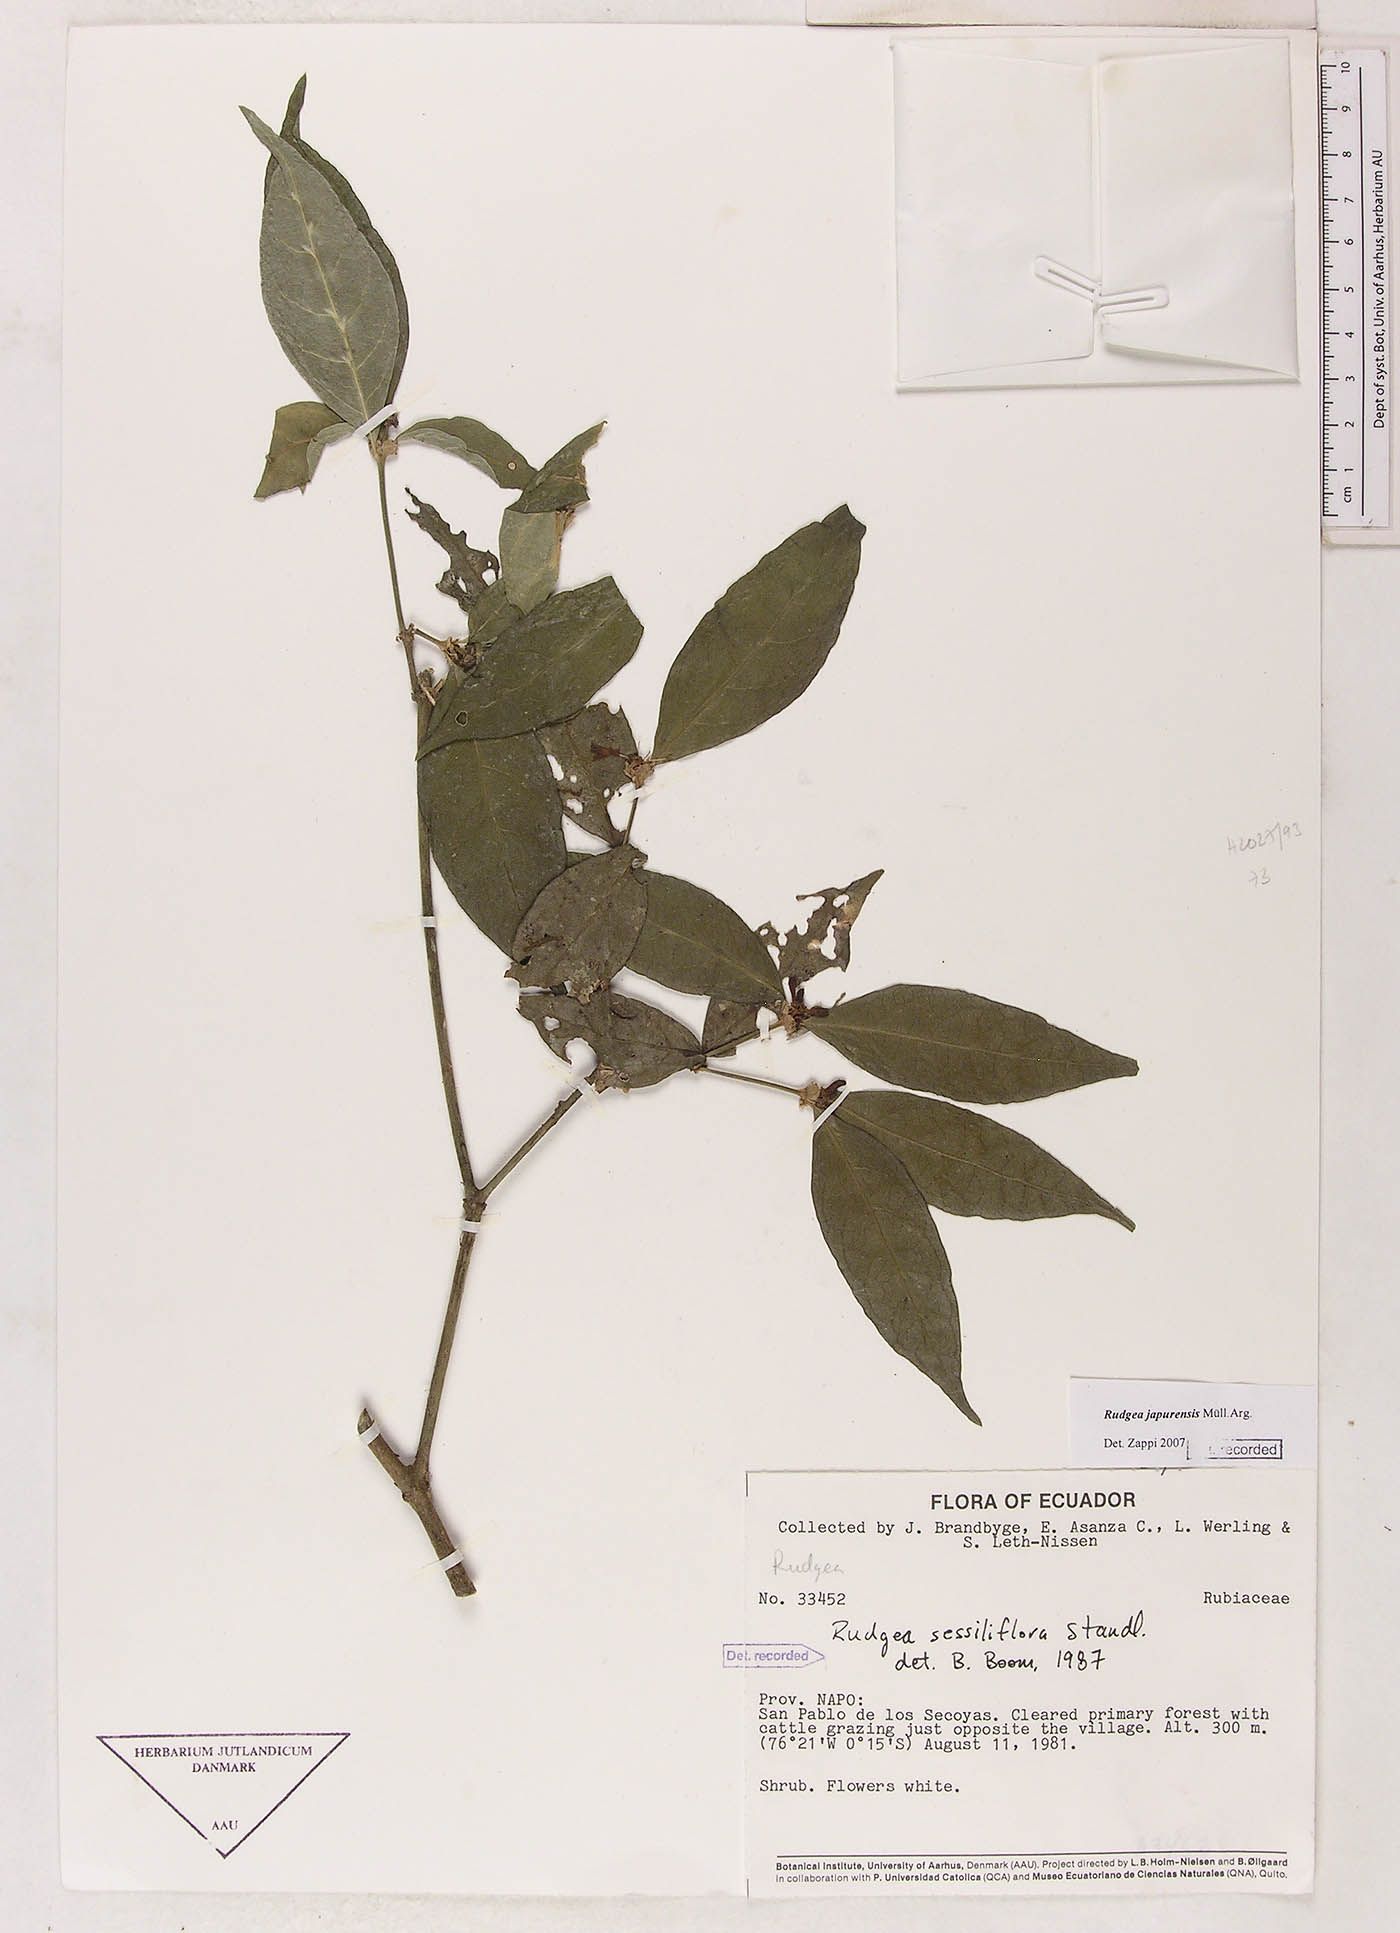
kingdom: Plantae
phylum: Tracheophyta
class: Magnoliopsida
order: Gentianales
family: Rubiaceae
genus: Rudgea
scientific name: Rudgea panurensis
